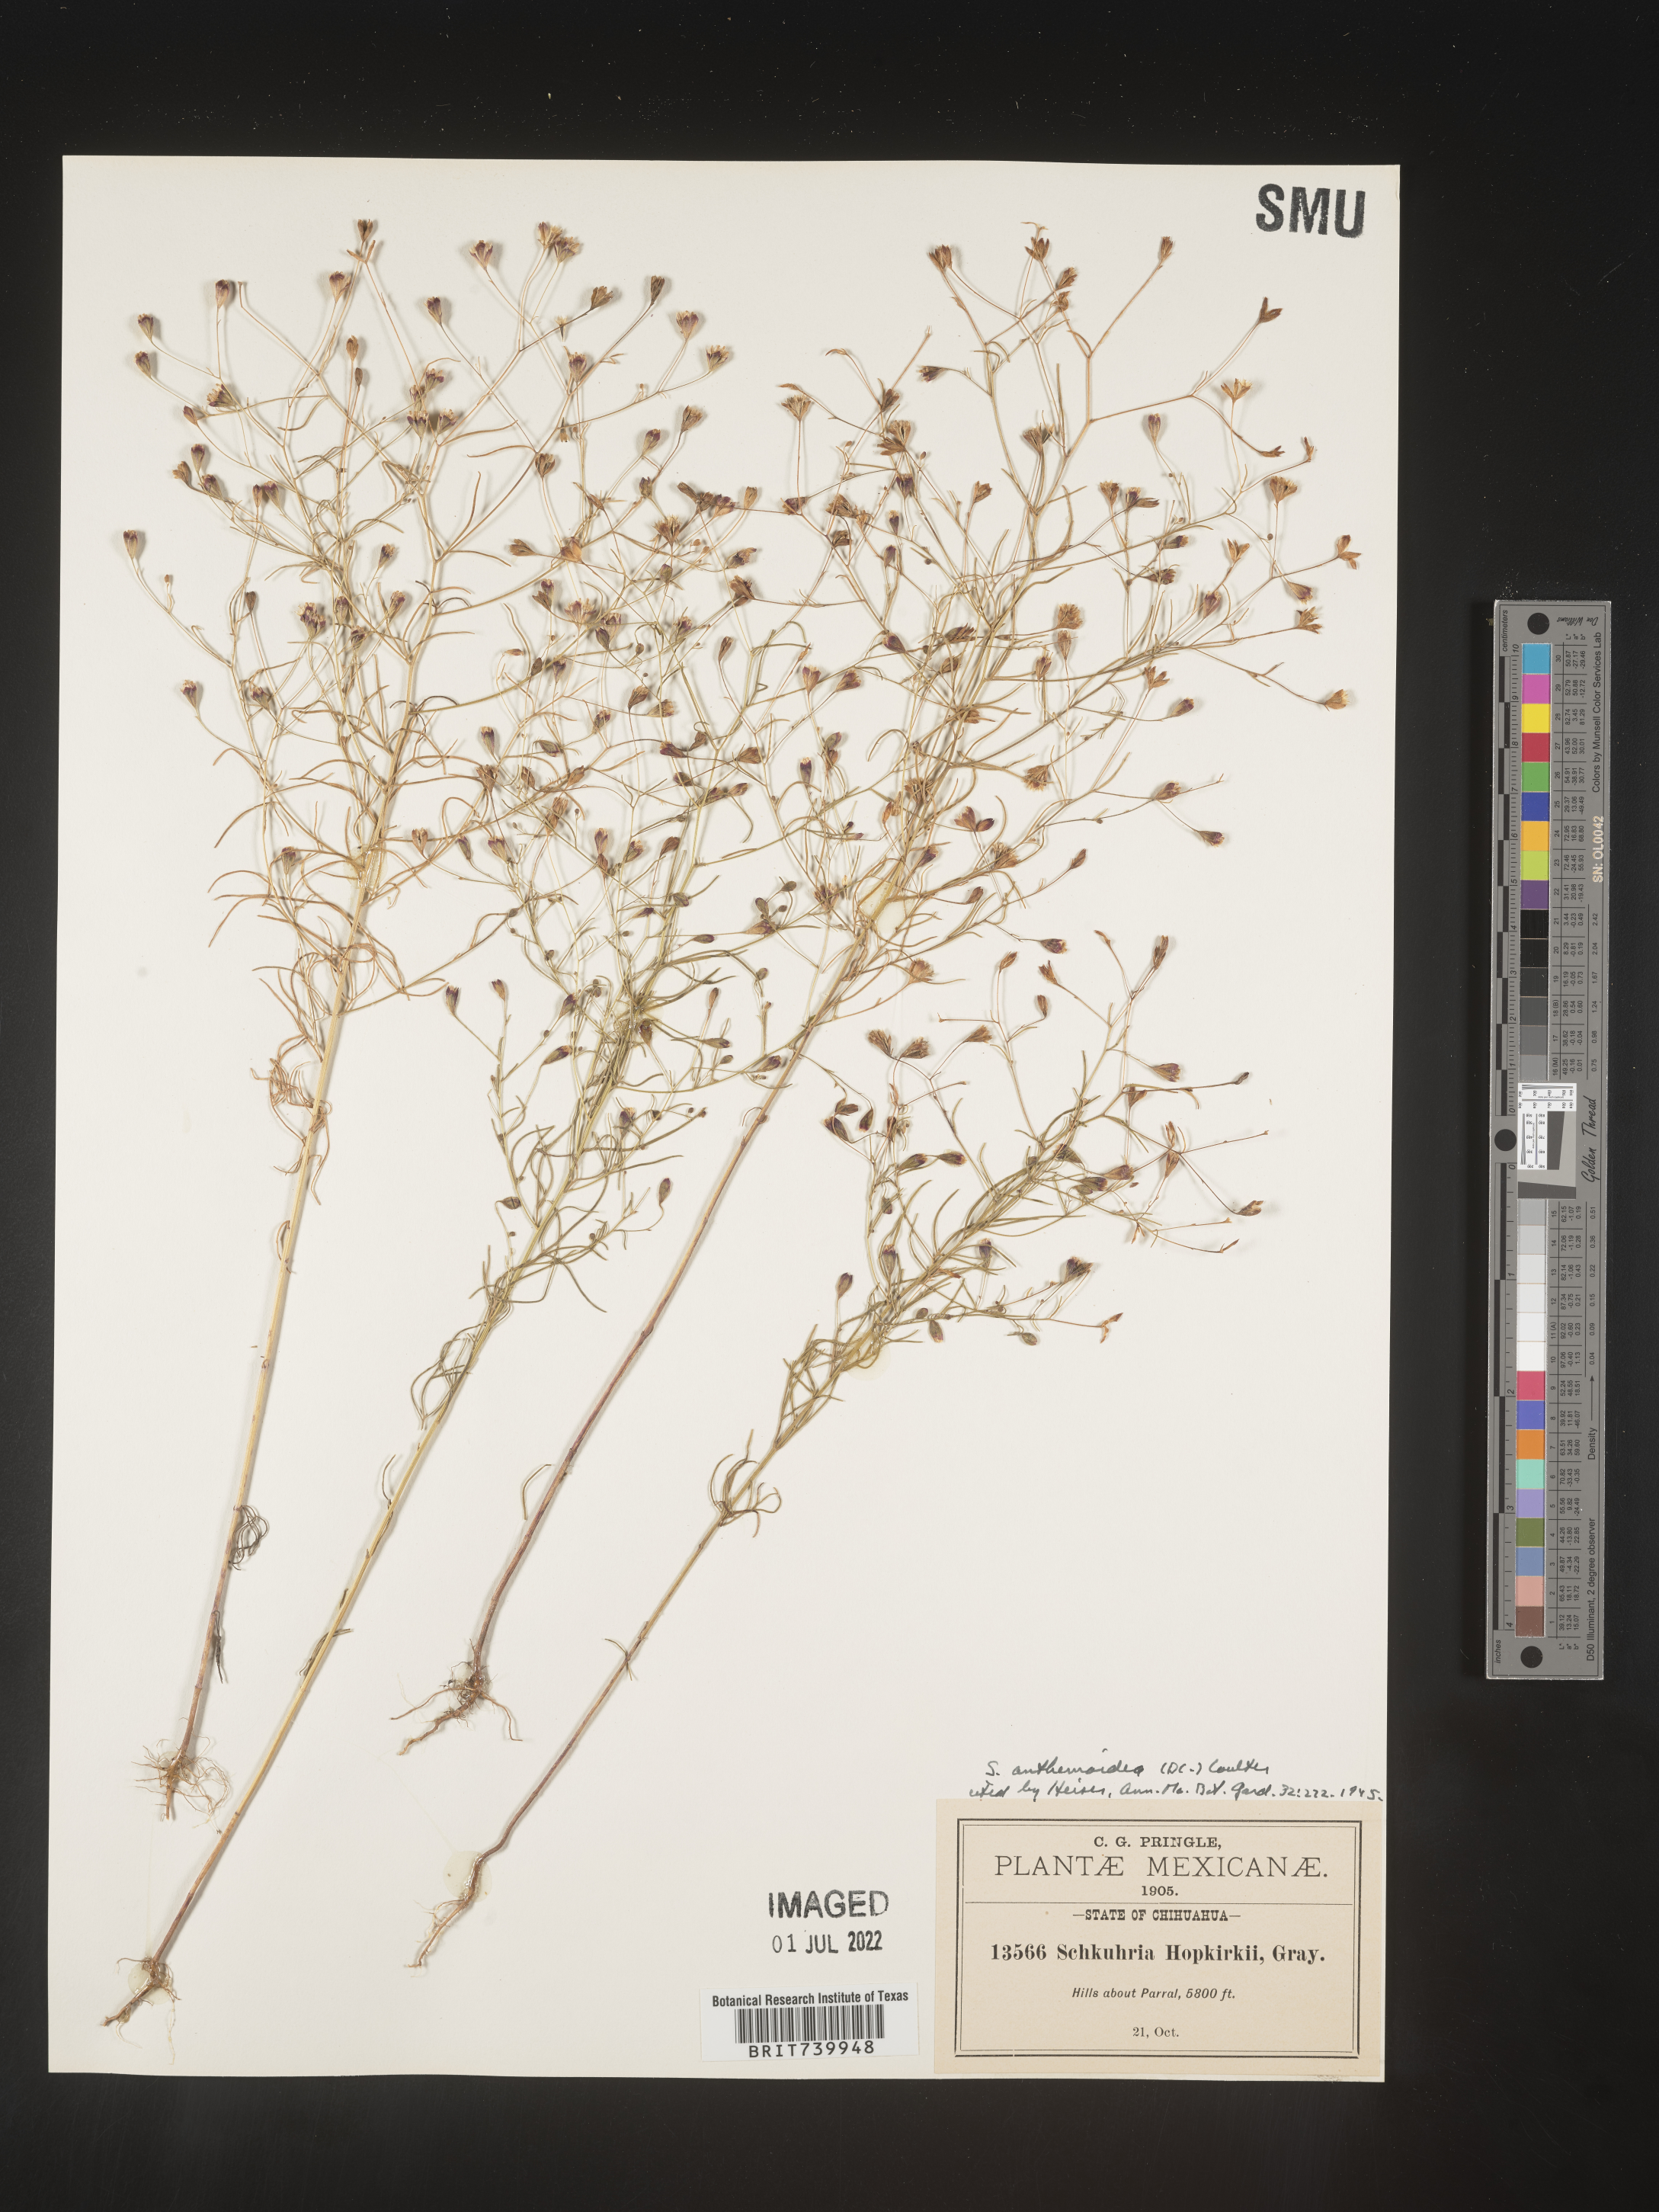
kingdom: Plantae
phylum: Tracheophyta
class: Magnoliopsida
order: Asterales
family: Asteraceae
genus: Schkuhria
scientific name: Schkuhria
